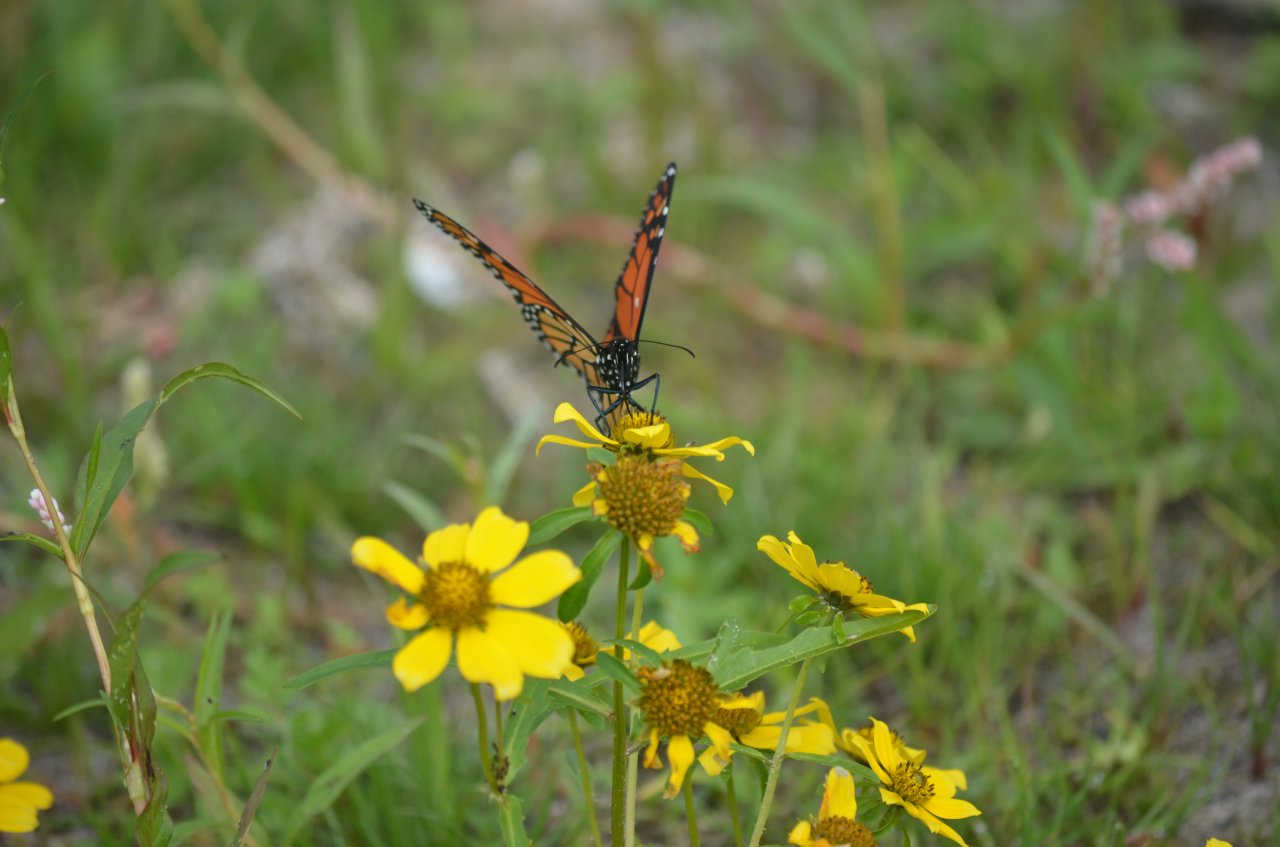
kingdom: Animalia
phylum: Arthropoda
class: Insecta
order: Lepidoptera
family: Nymphalidae
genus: Danaus
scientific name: Danaus plexippus
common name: Monarch
